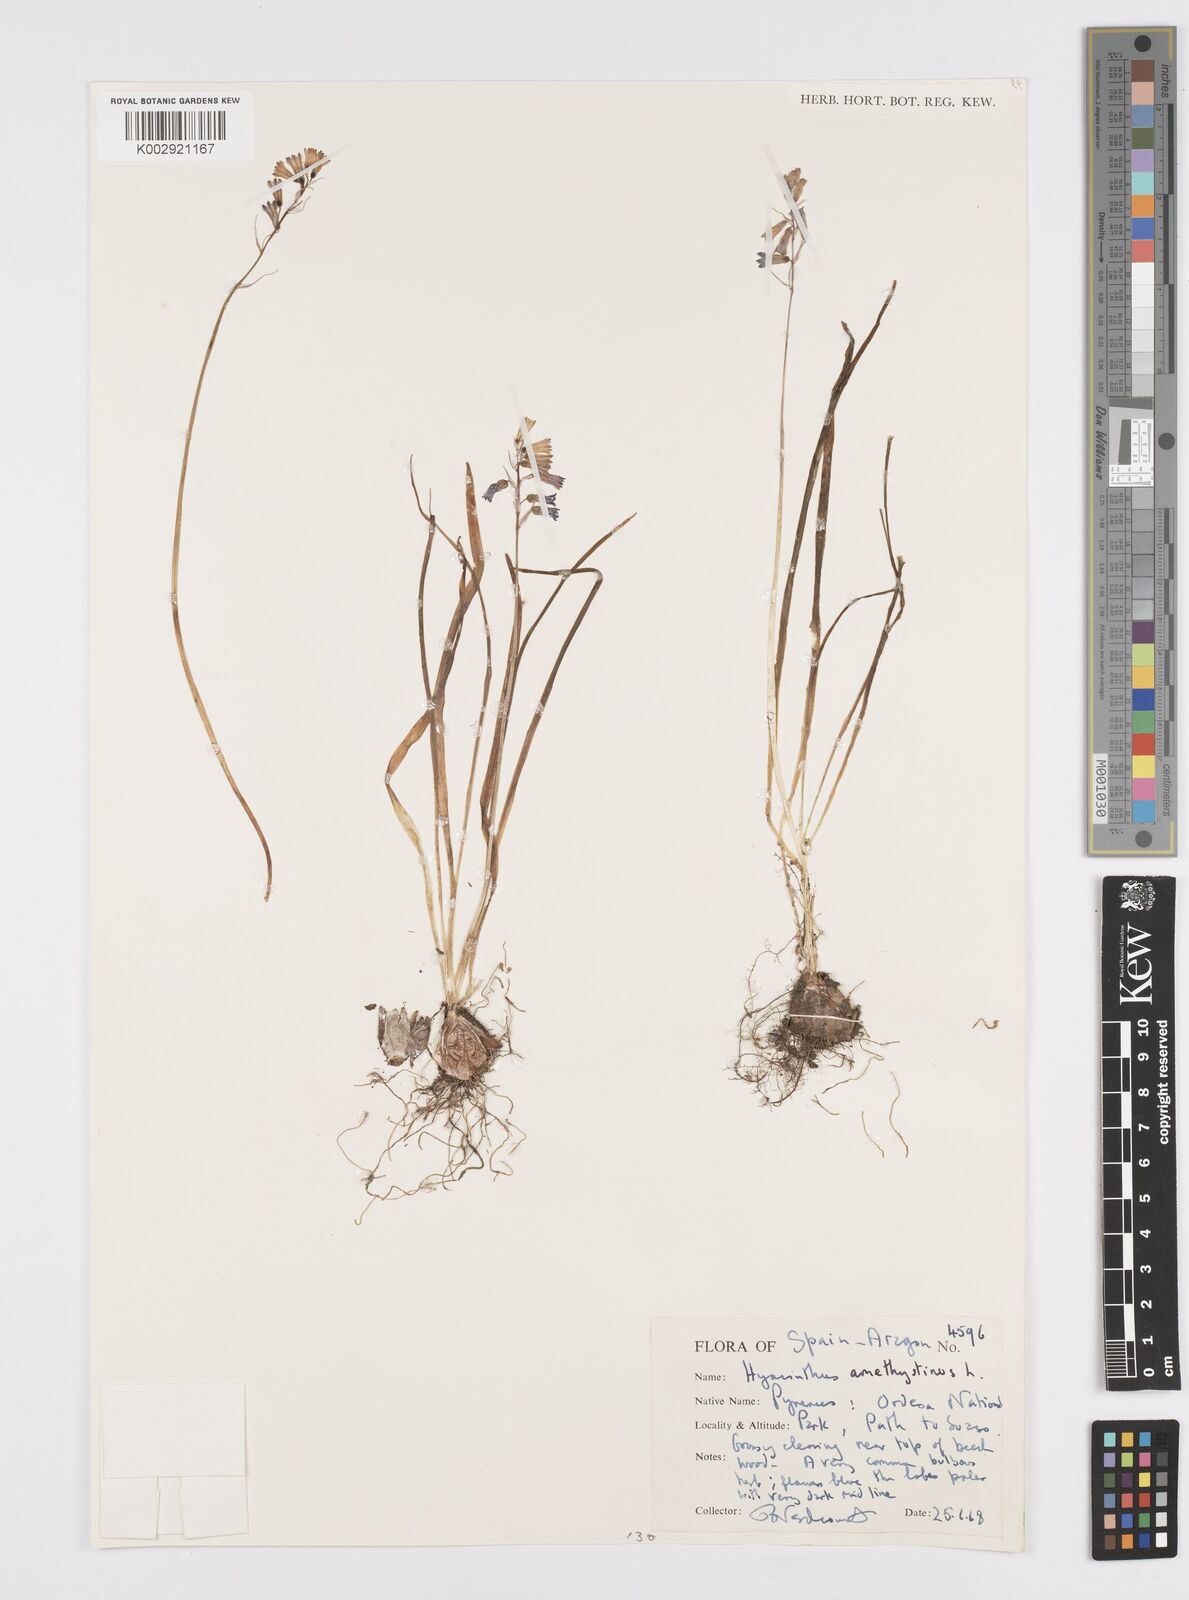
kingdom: Plantae
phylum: Tracheophyta
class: Liliopsida
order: Asparagales
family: Asparagaceae
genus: Brimeura
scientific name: Brimeura
